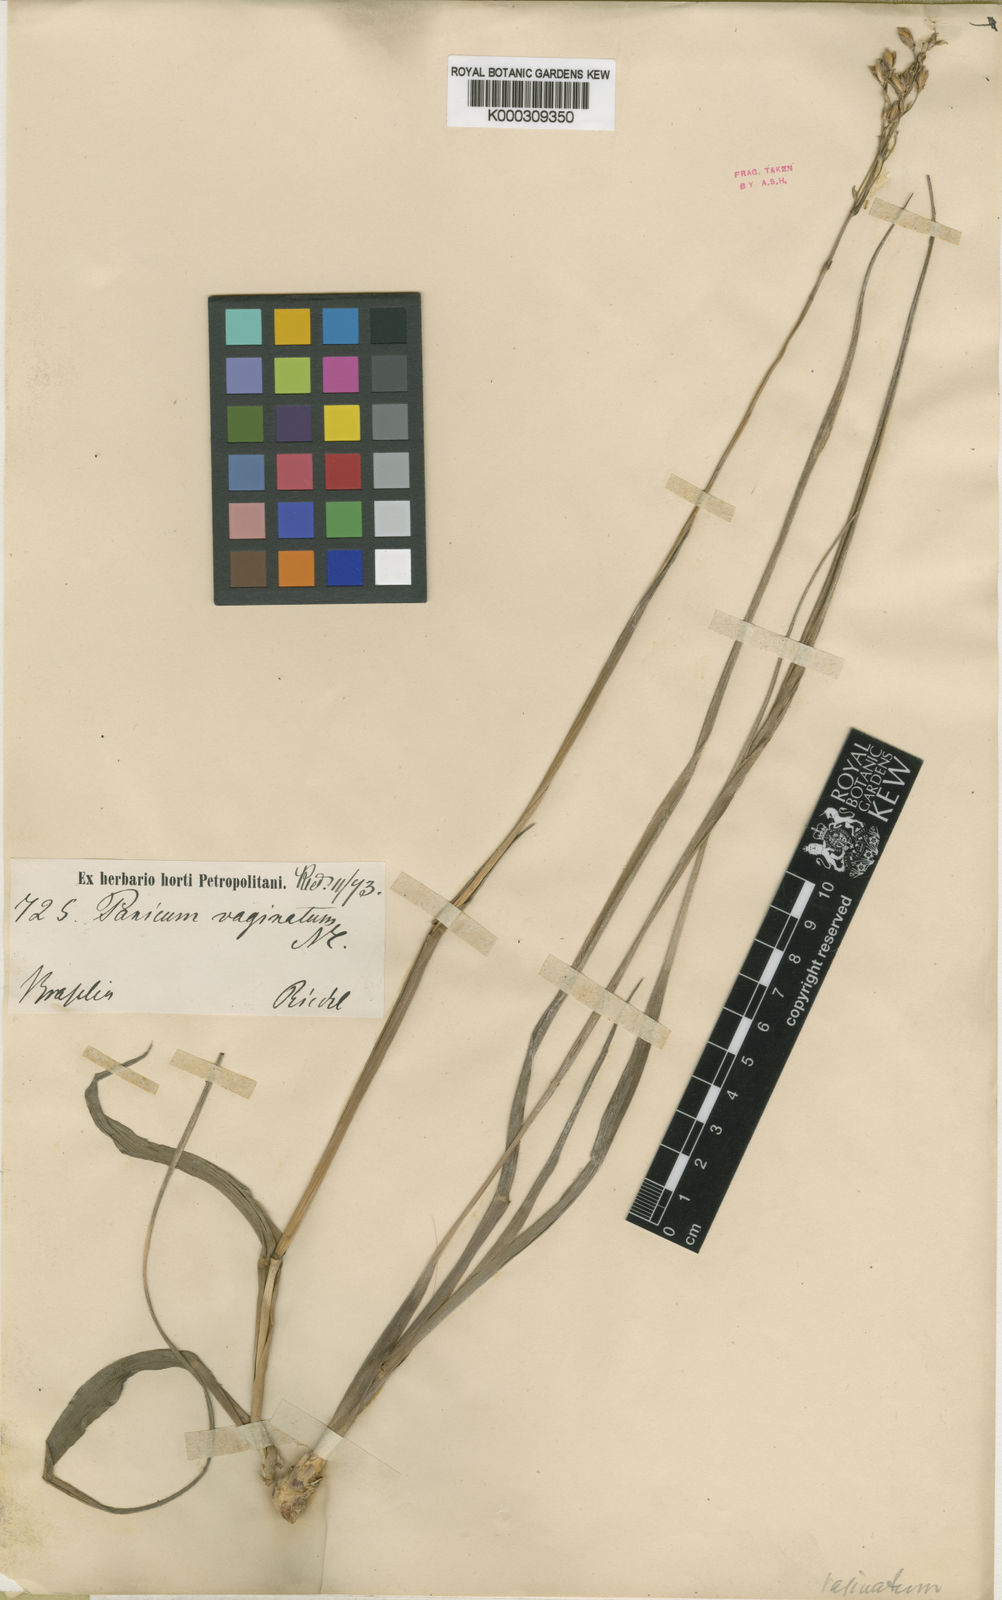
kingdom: Plantae
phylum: Tracheophyta
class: Liliopsida
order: Poales
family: Poaceae
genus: Oncorachis
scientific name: Oncorachis macrantha
